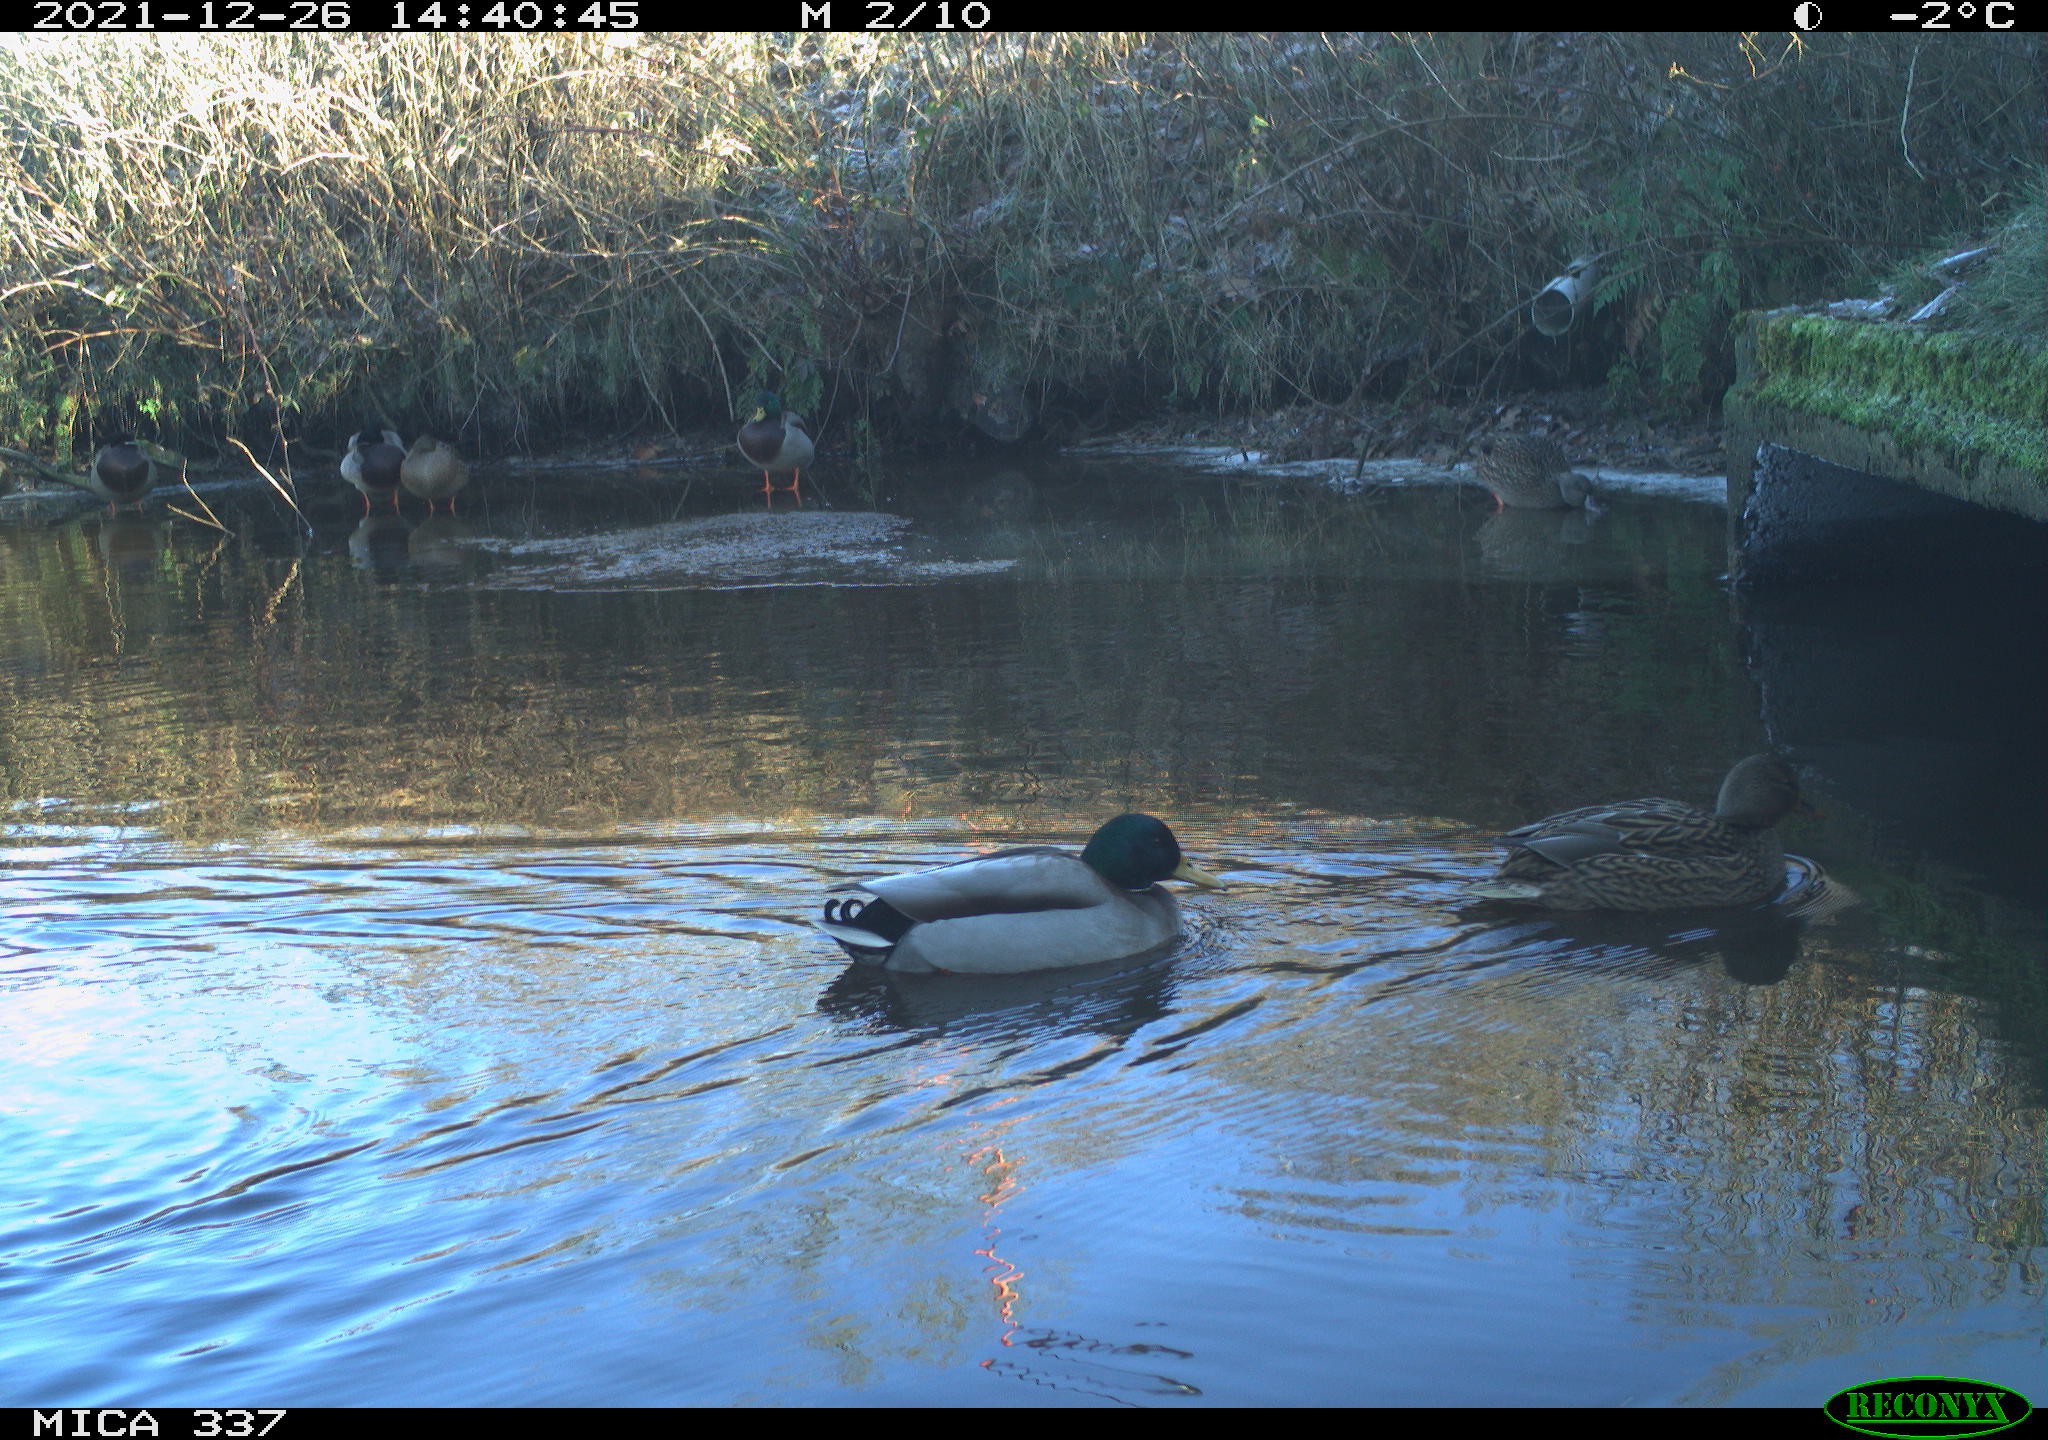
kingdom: Animalia
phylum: Chordata
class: Aves
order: Anseriformes
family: Anatidae
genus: Anas
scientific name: Anas platyrhynchos
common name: Mallard
